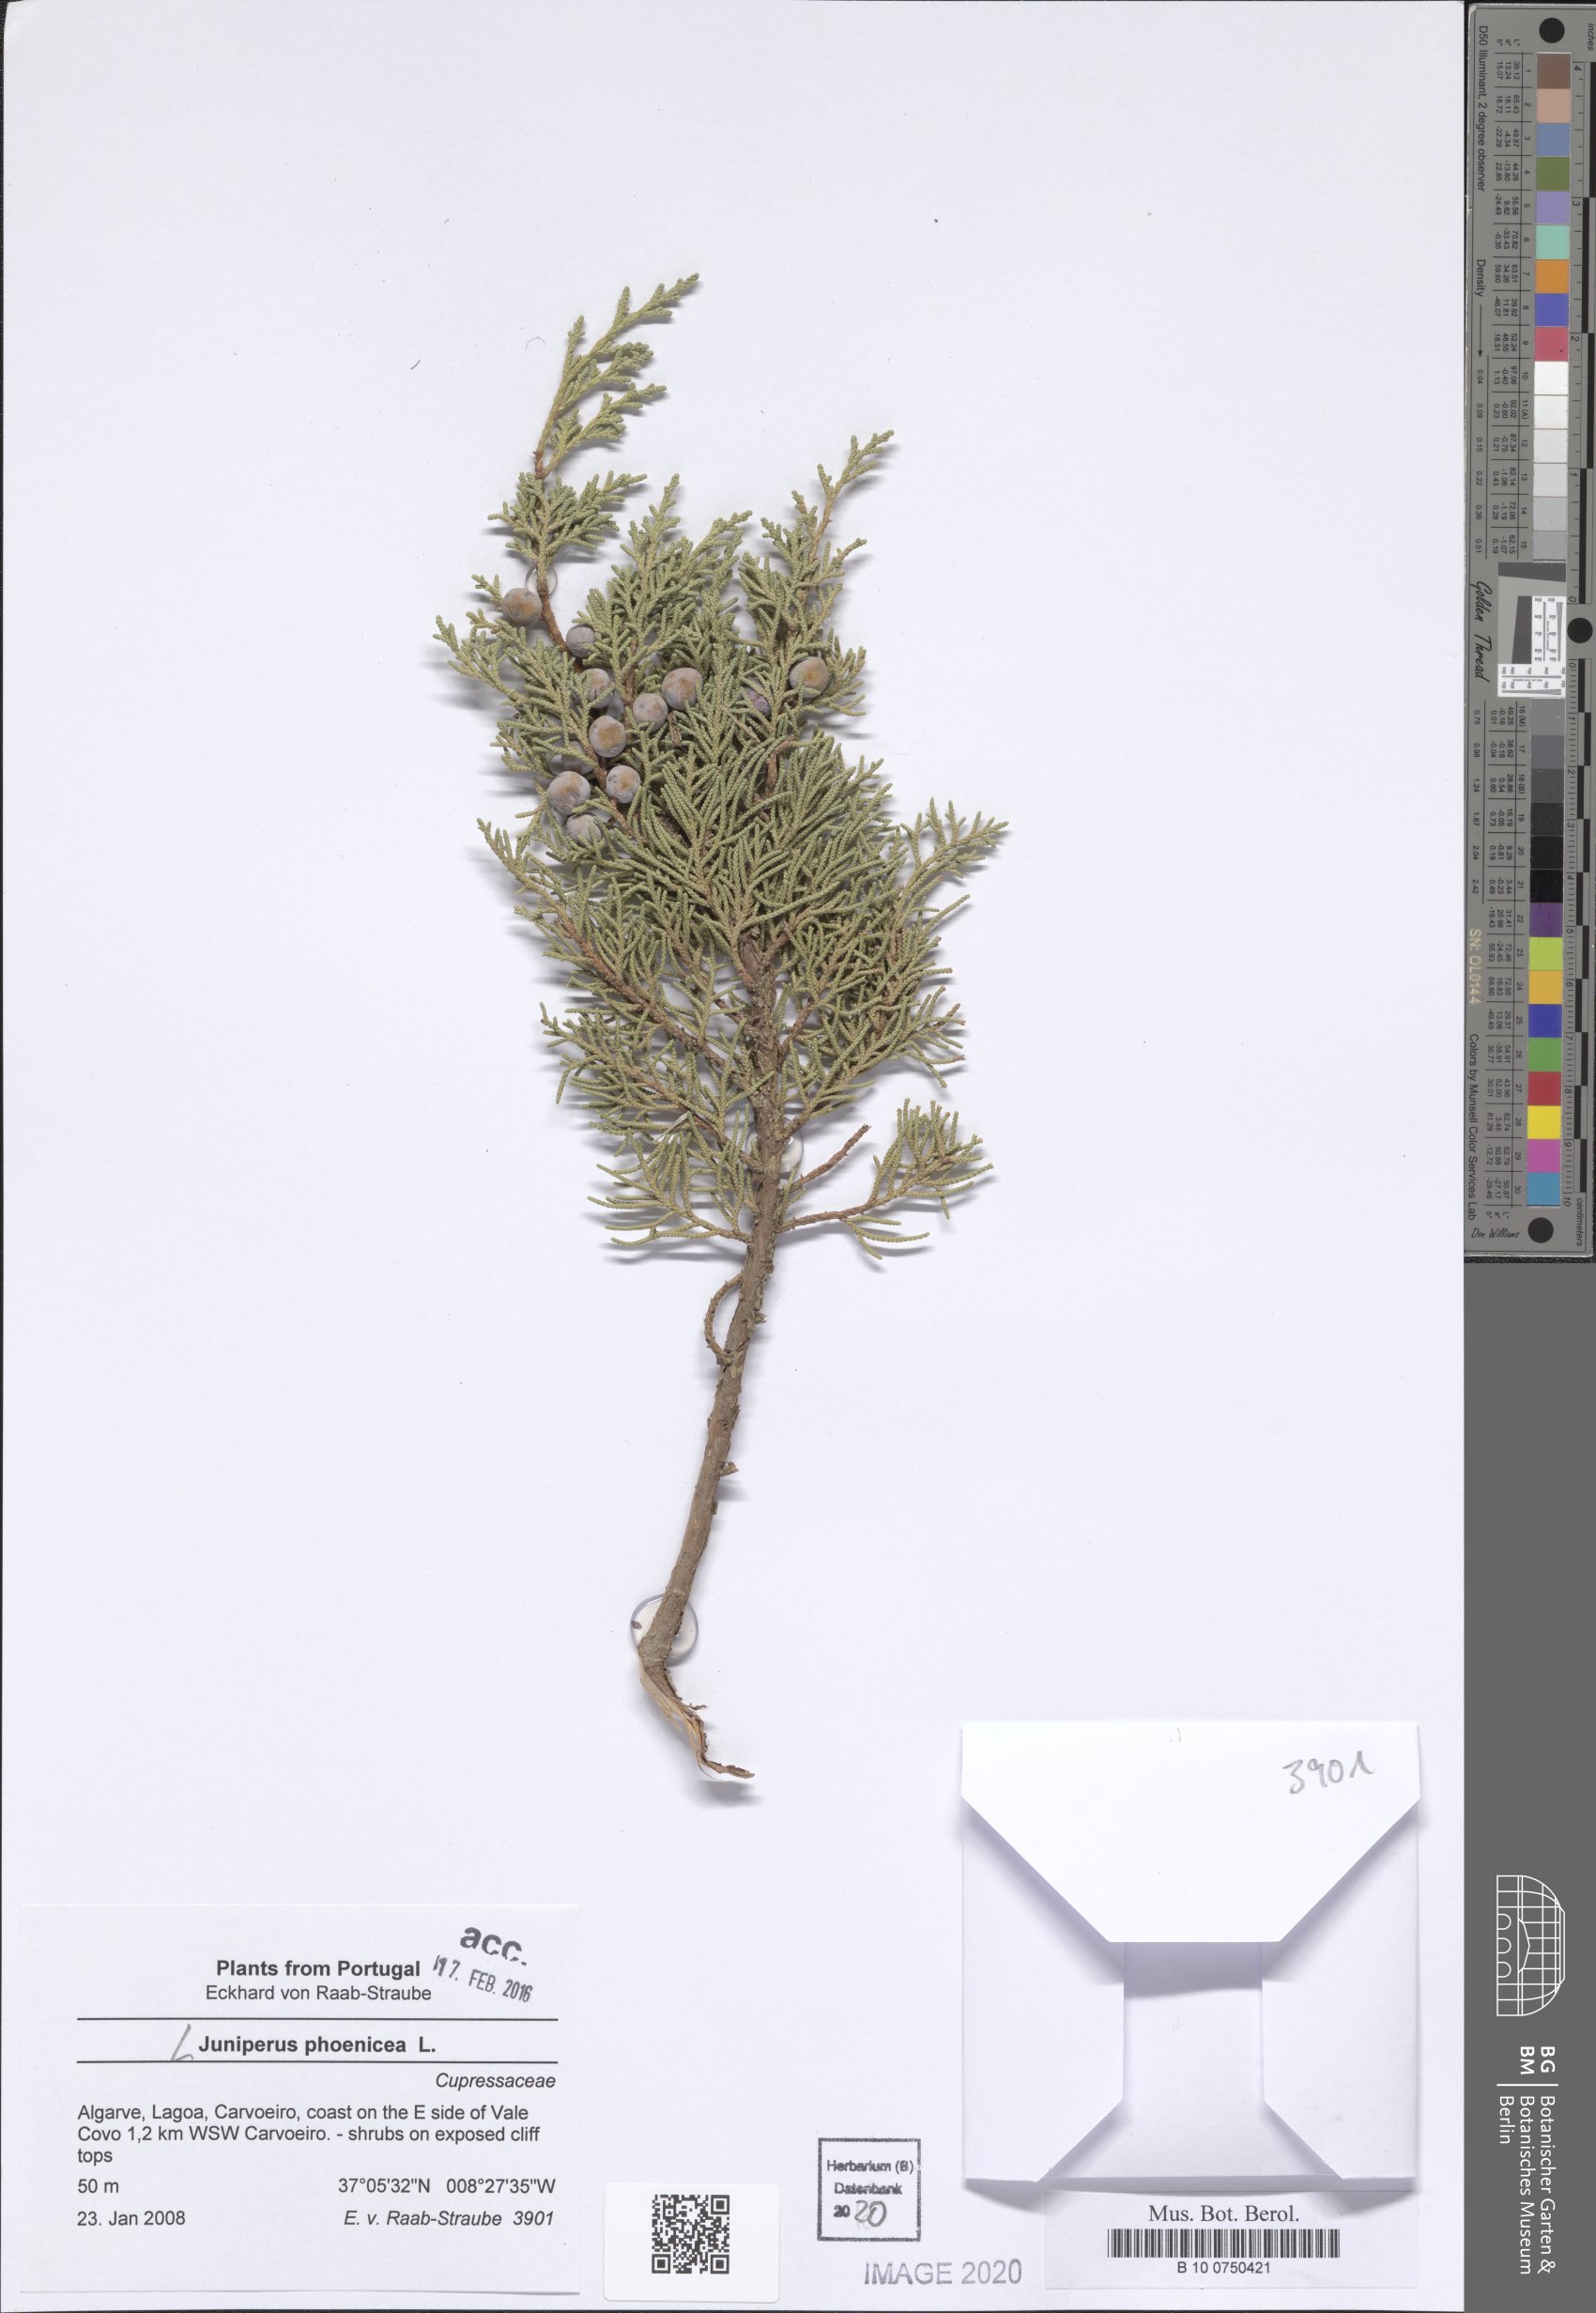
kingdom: Plantae
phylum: Tracheophyta
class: Pinopsida
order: Pinales
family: Cupressaceae
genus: Juniperus
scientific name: Juniperus phoenicea
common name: Phoenician juniper
